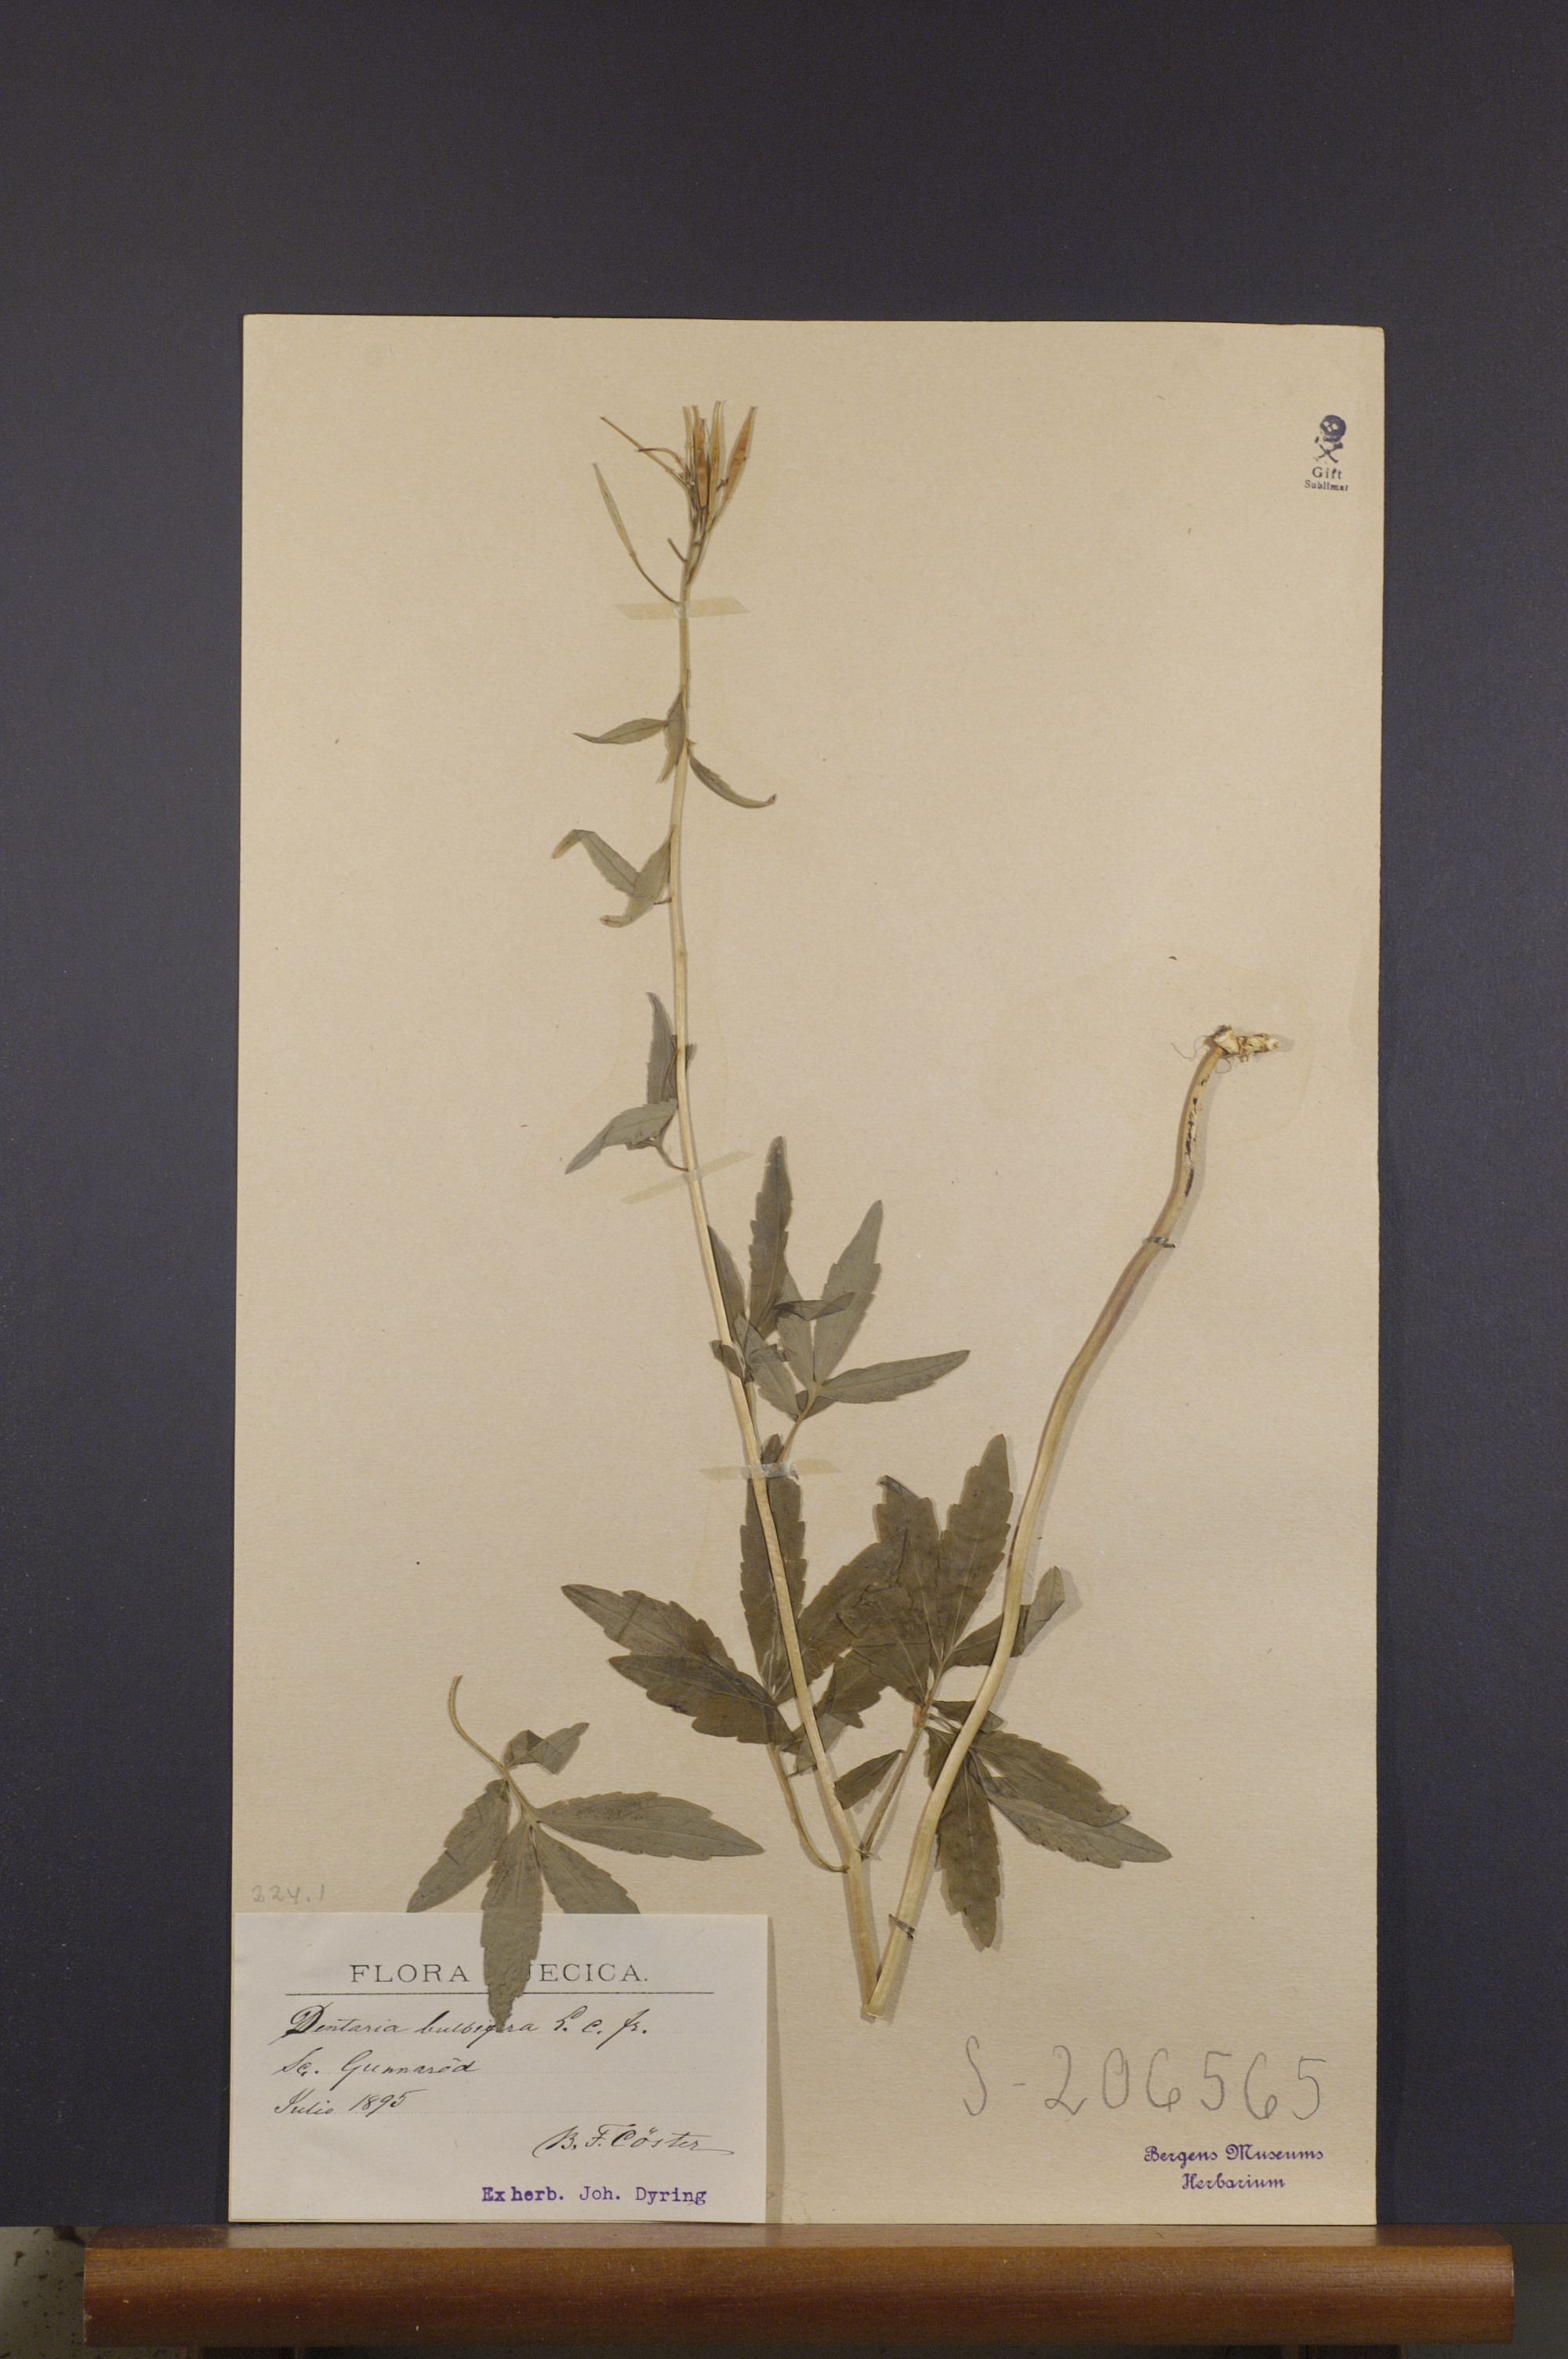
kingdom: Plantae
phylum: Tracheophyta
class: Magnoliopsida
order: Brassicales
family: Brassicaceae
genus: Cardamine
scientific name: Cardamine bulbifera
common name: Coralroot bittercress
